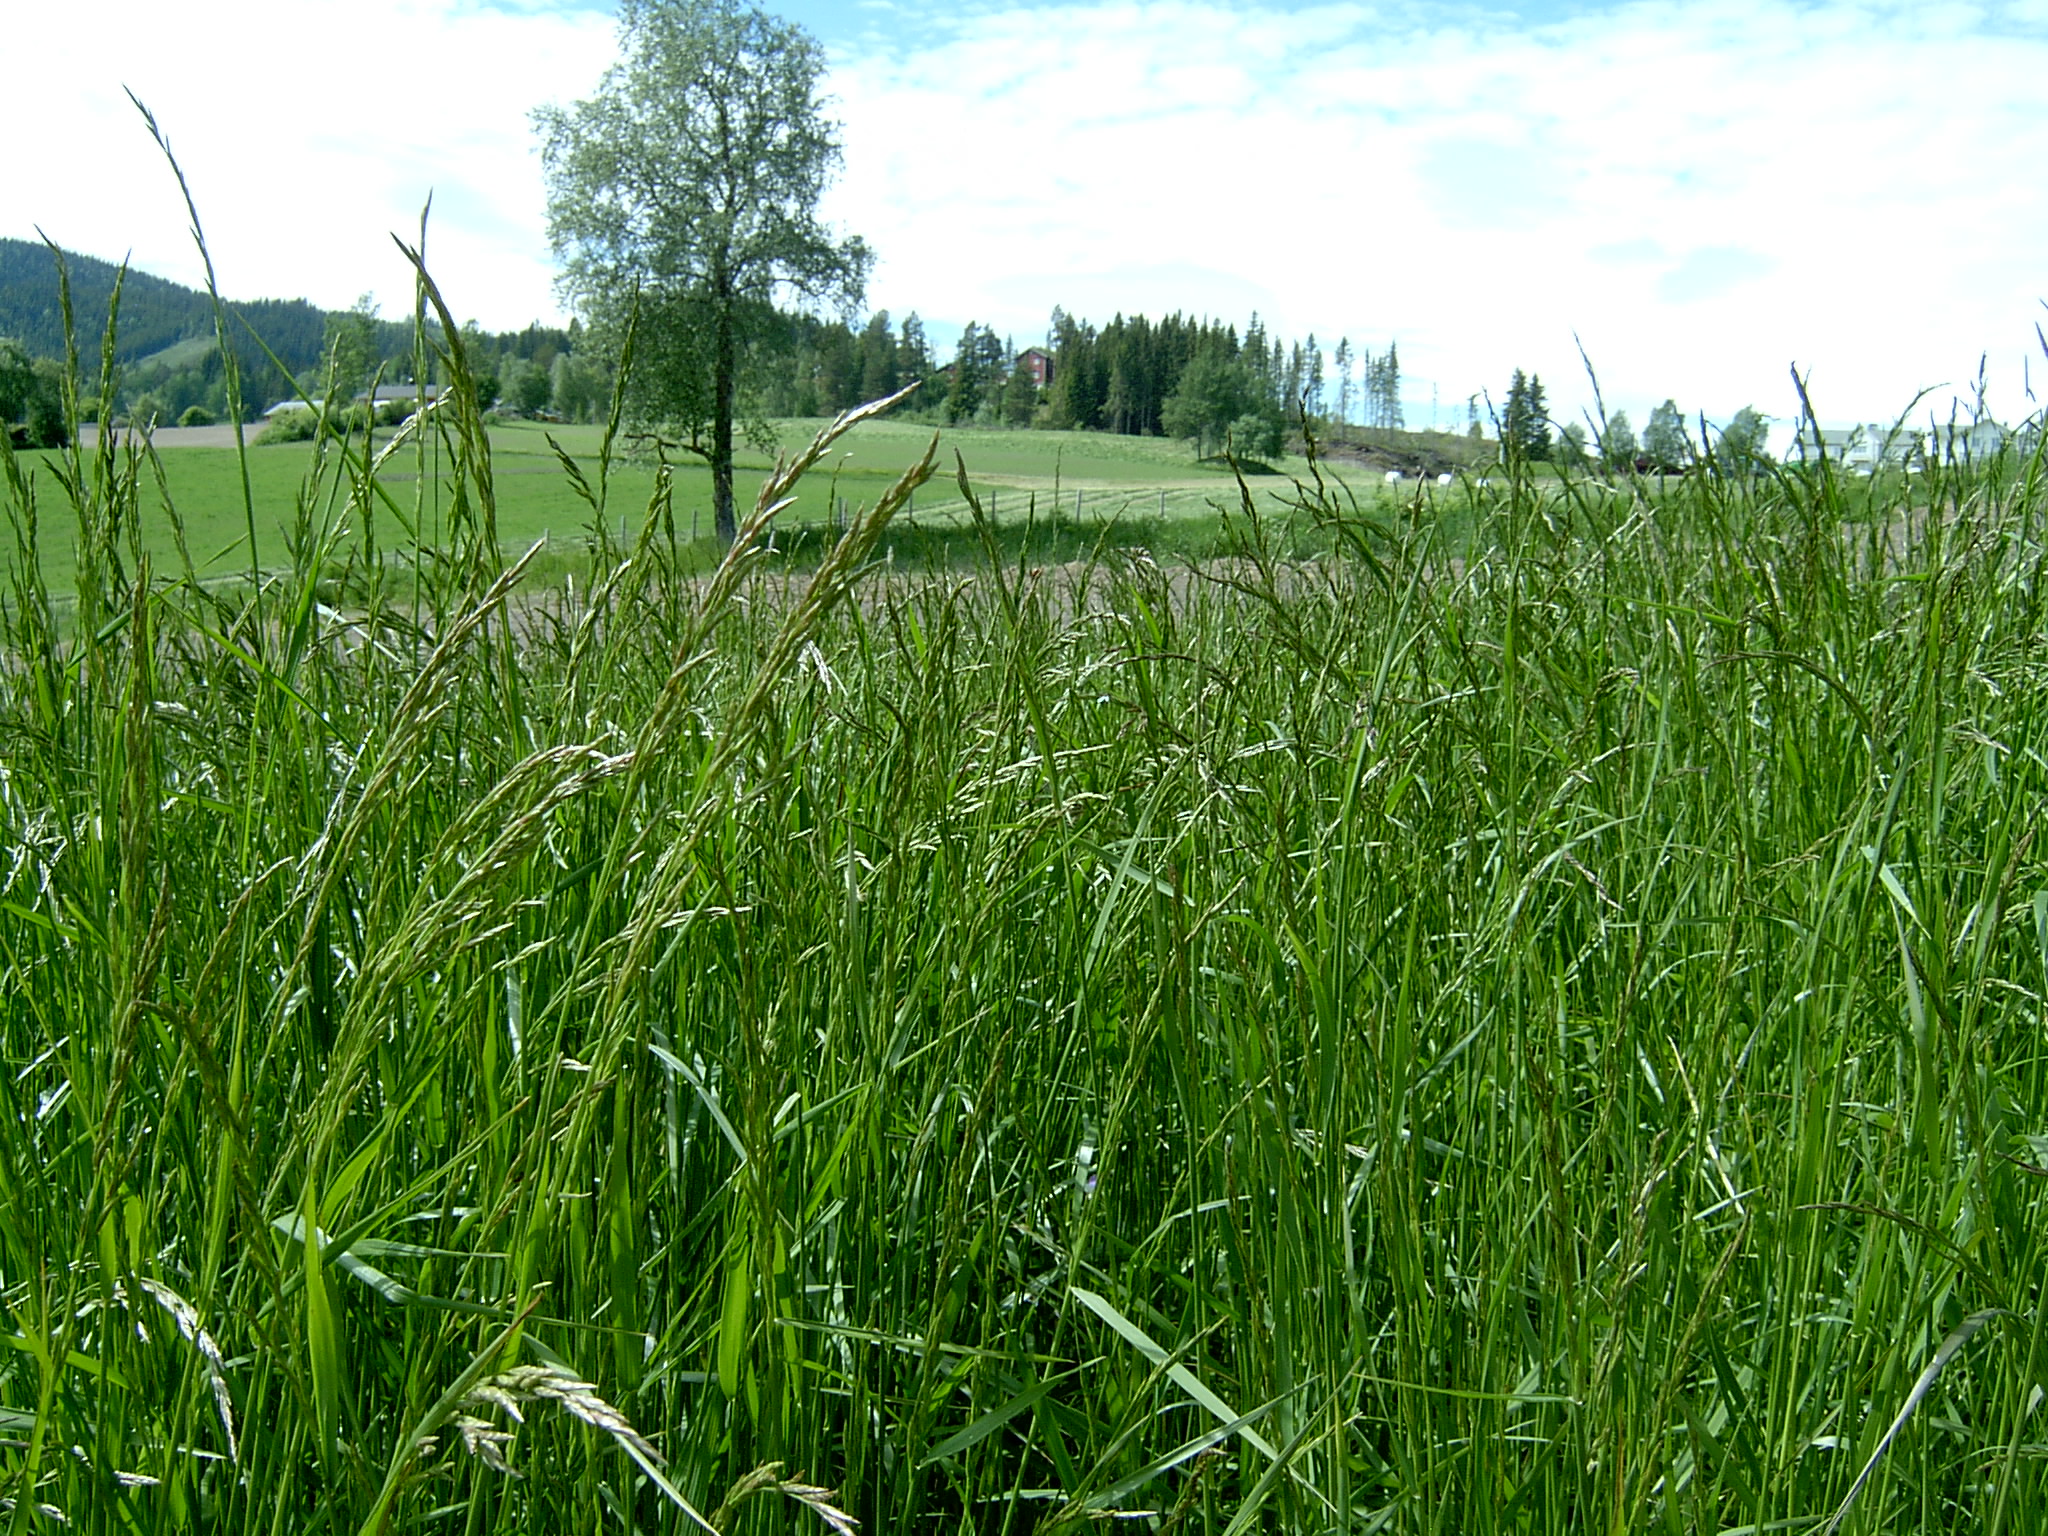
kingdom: Plantae
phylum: Tracheophyta
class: Liliopsida
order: Poales
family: Poaceae
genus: Lolium
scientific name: Lolium pratense
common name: Dover grass
